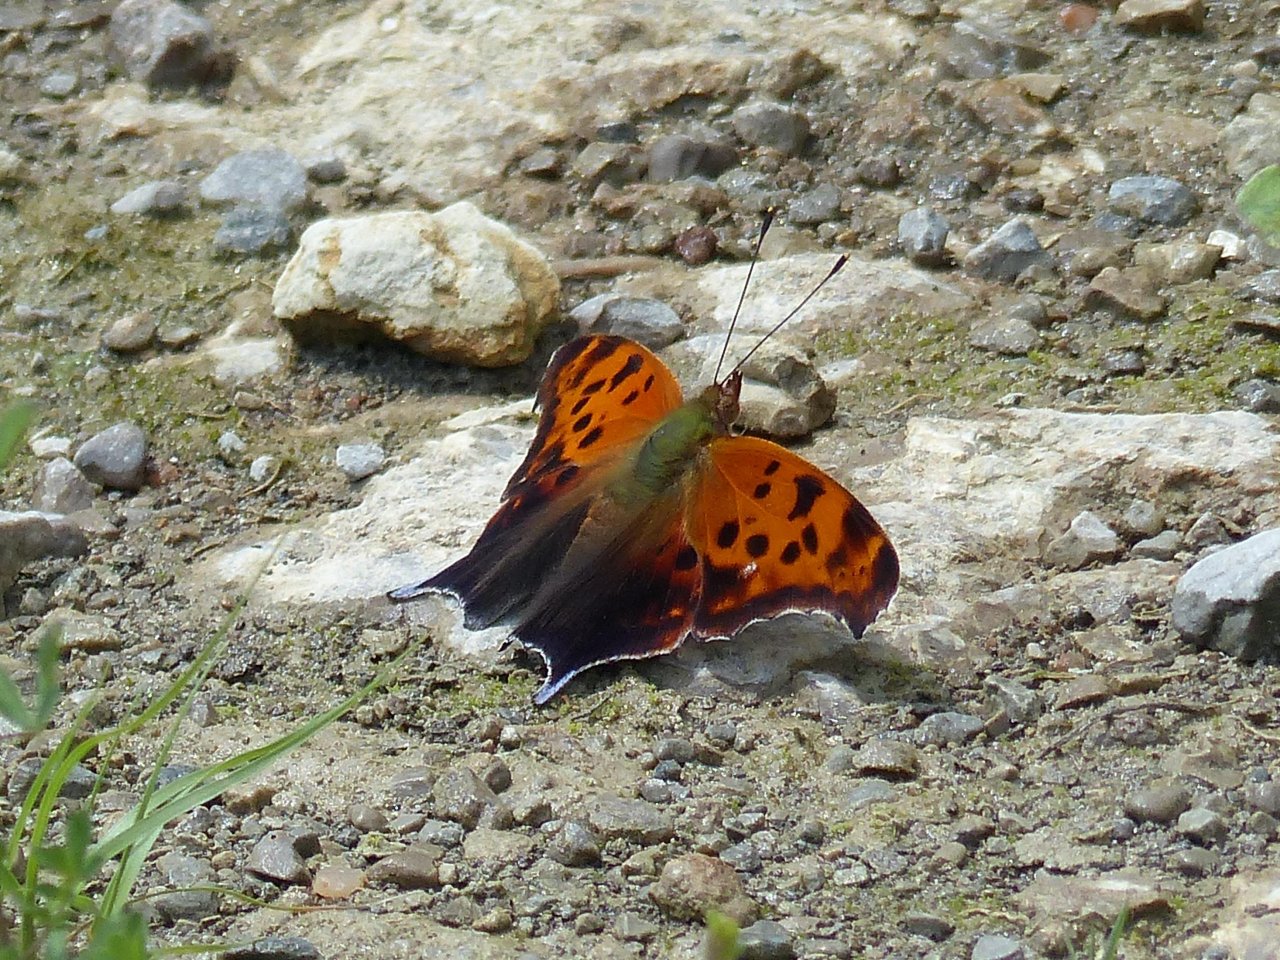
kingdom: Animalia
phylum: Arthropoda
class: Insecta
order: Lepidoptera
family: Nymphalidae
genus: Polygonia
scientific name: Polygonia interrogationis
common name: Question Mark
